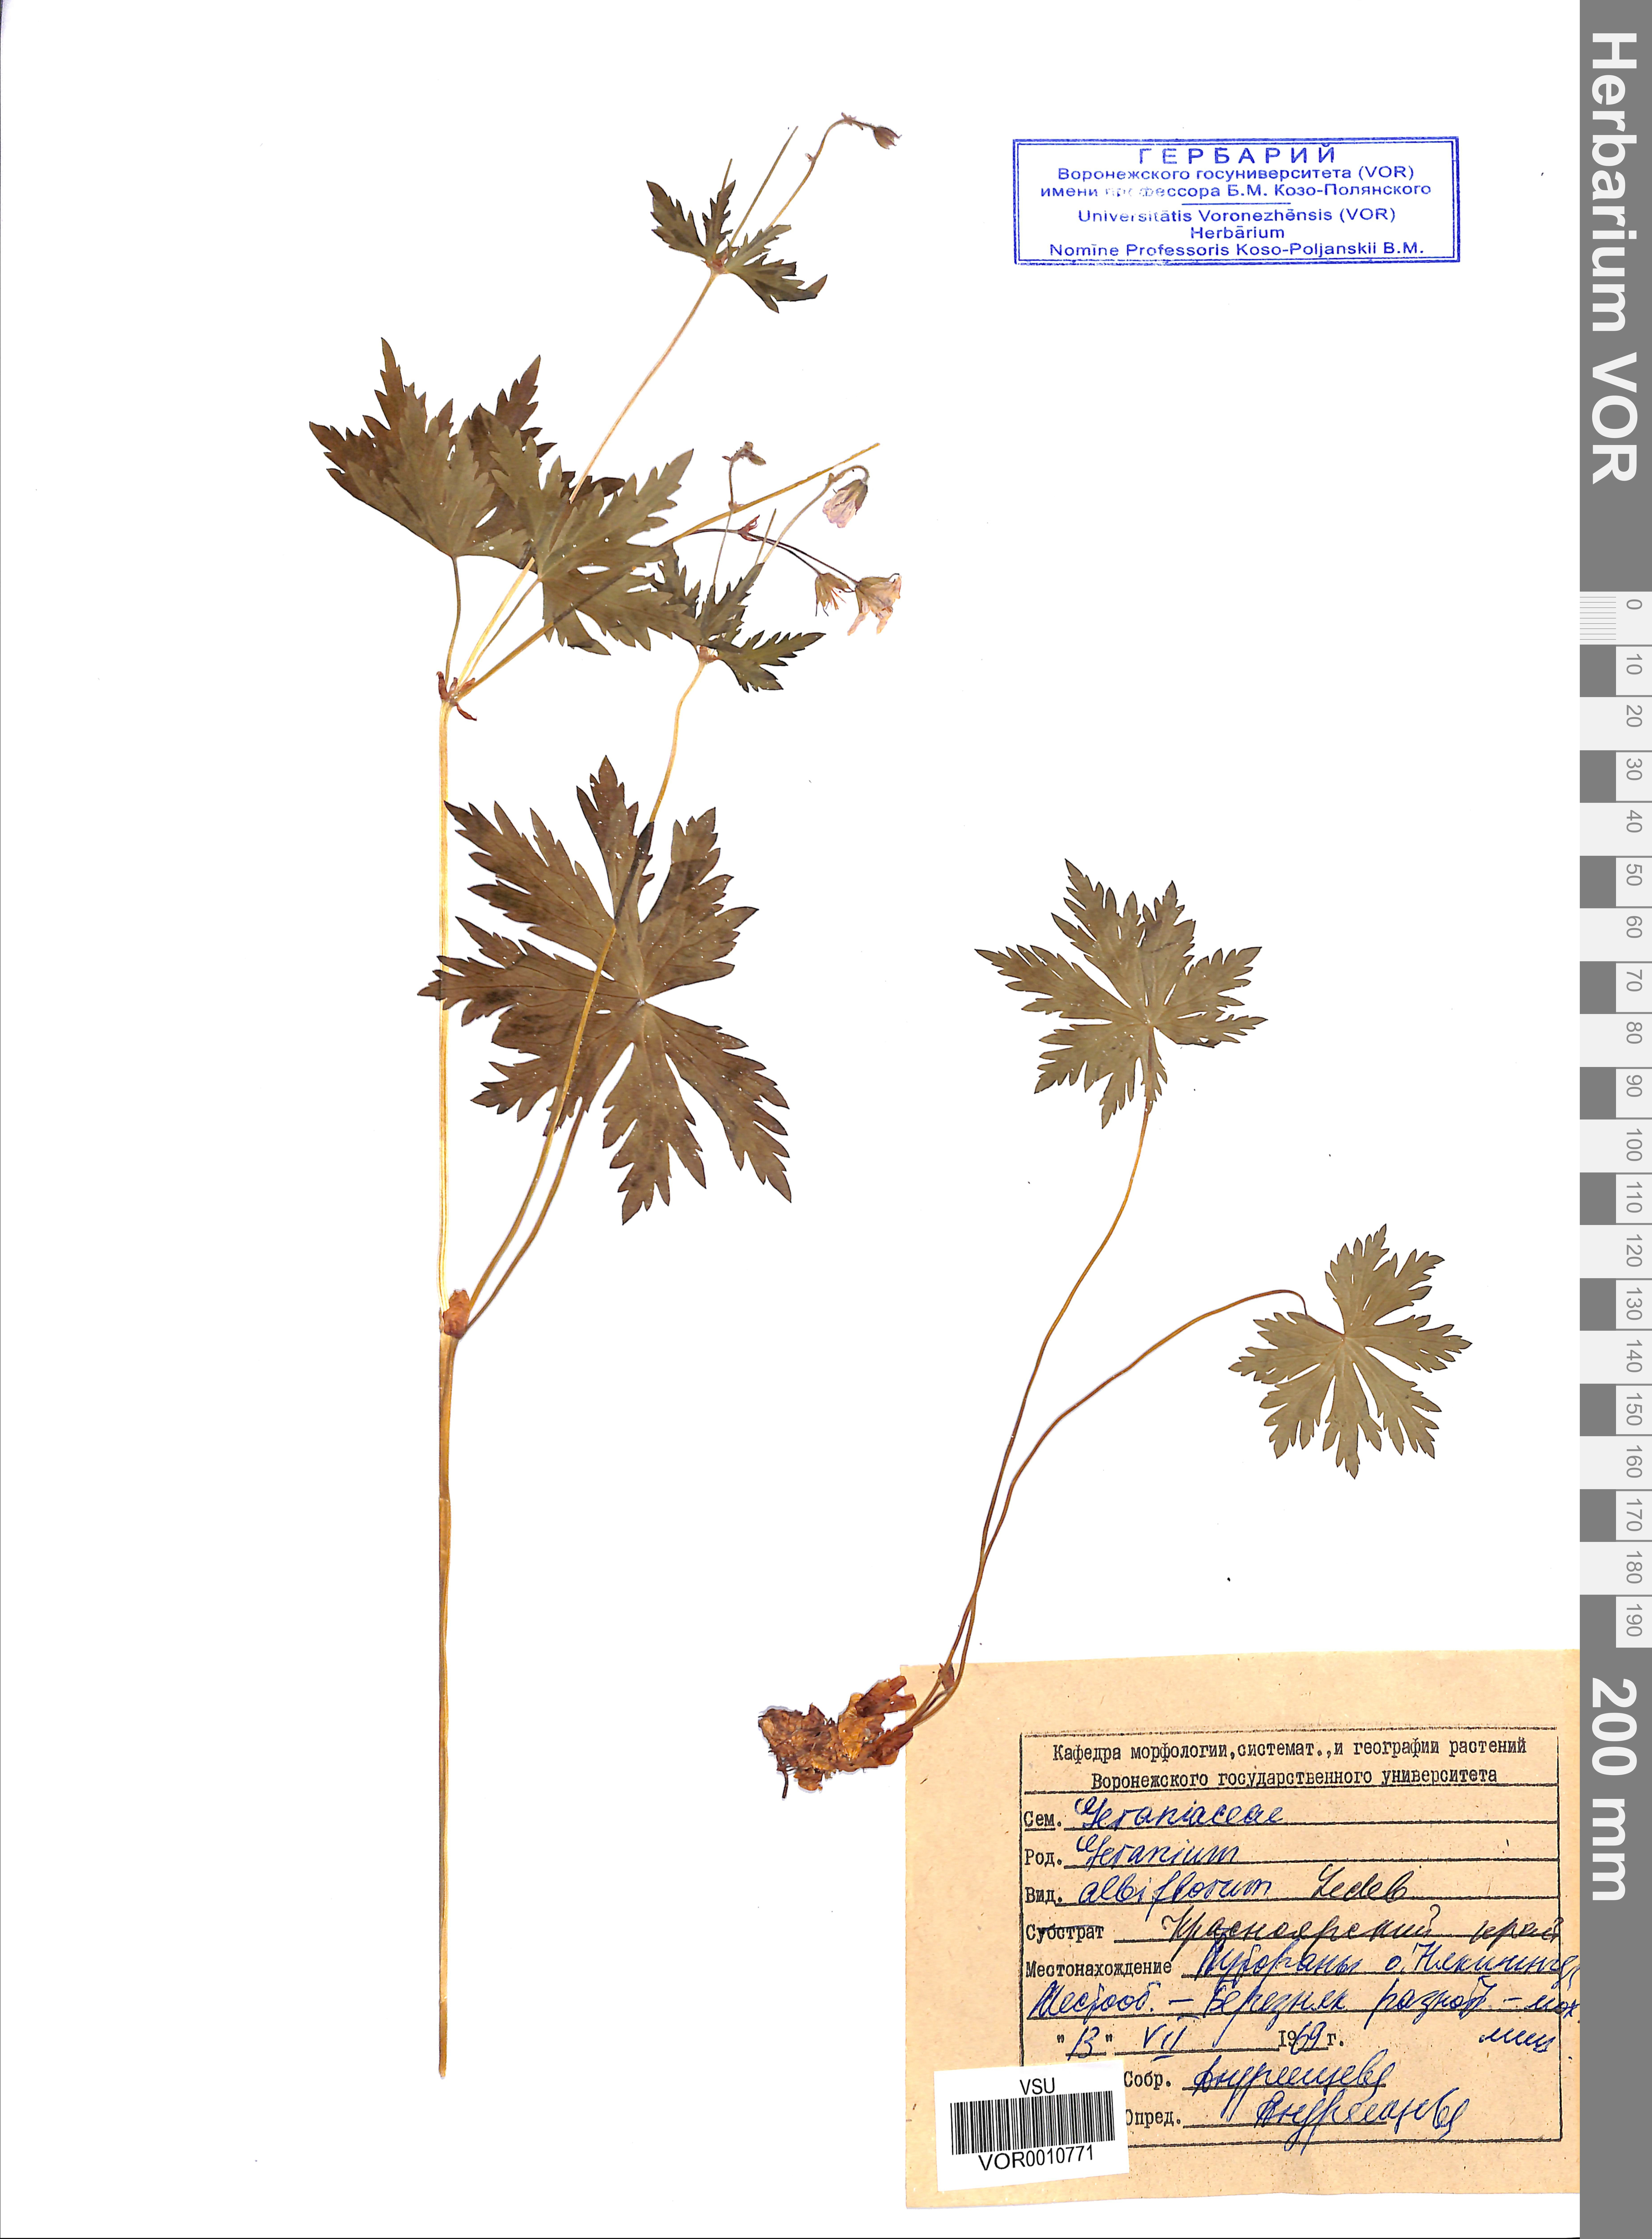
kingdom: Plantae
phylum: Tracheophyta
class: Magnoliopsida
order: Geraniales
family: Geraniaceae
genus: Geranium
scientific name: Geranium albiflorum
